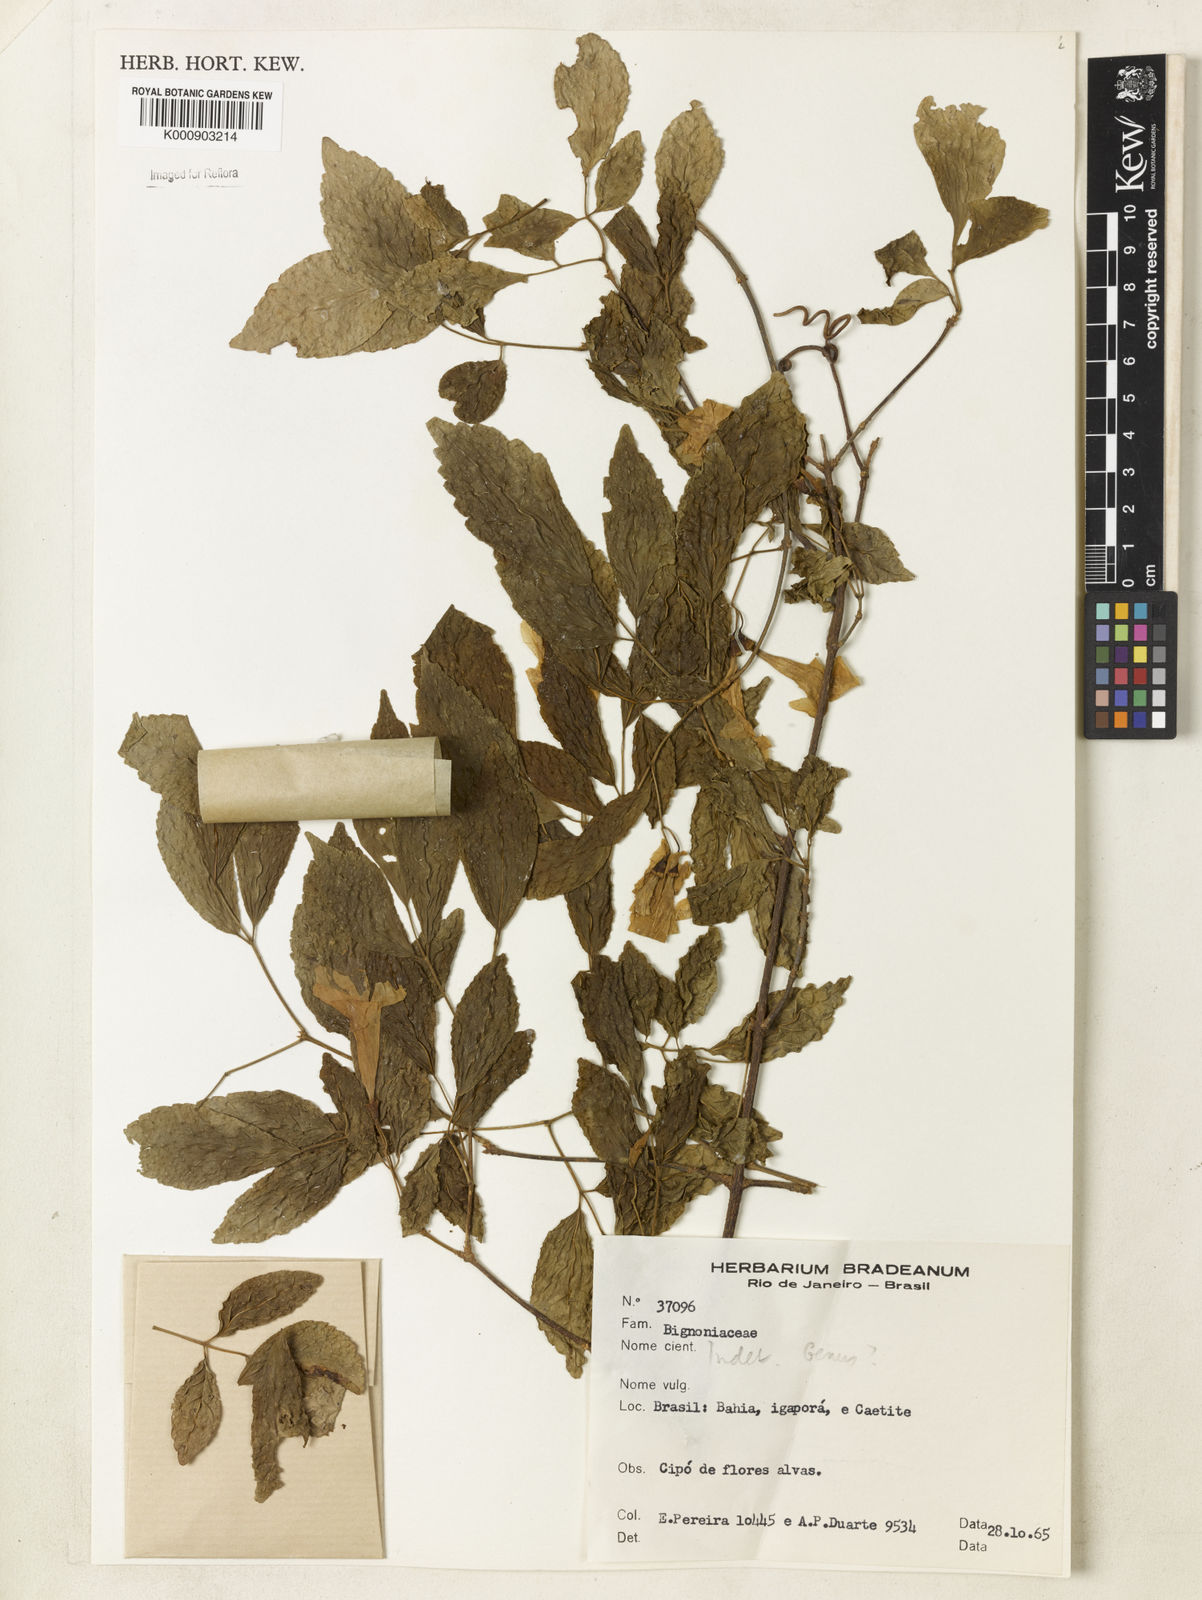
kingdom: Plantae
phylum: Tracheophyta
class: Magnoliopsida
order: Lamiales
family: Bignoniaceae
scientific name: Bignoniaceae
